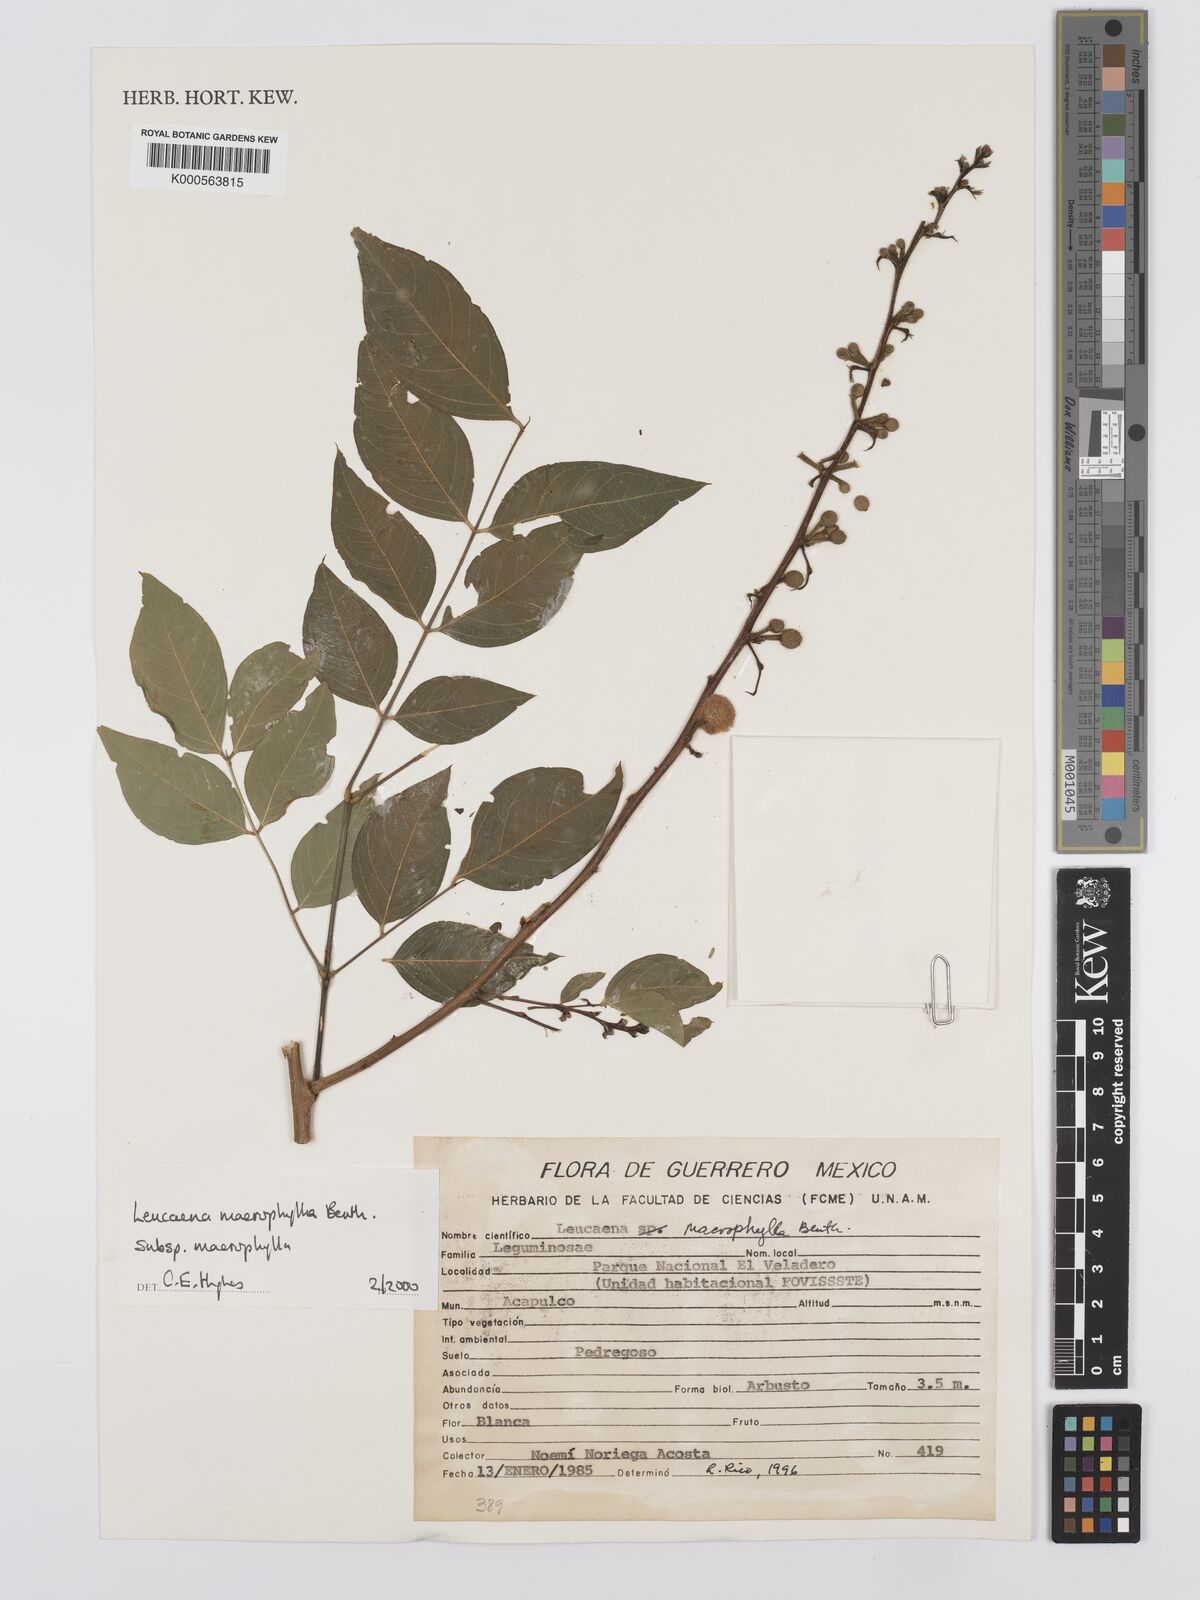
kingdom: Plantae
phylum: Tracheophyta
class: Magnoliopsida
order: Fabales
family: Fabaceae
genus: Leucaena
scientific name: Leucaena macrophylla
